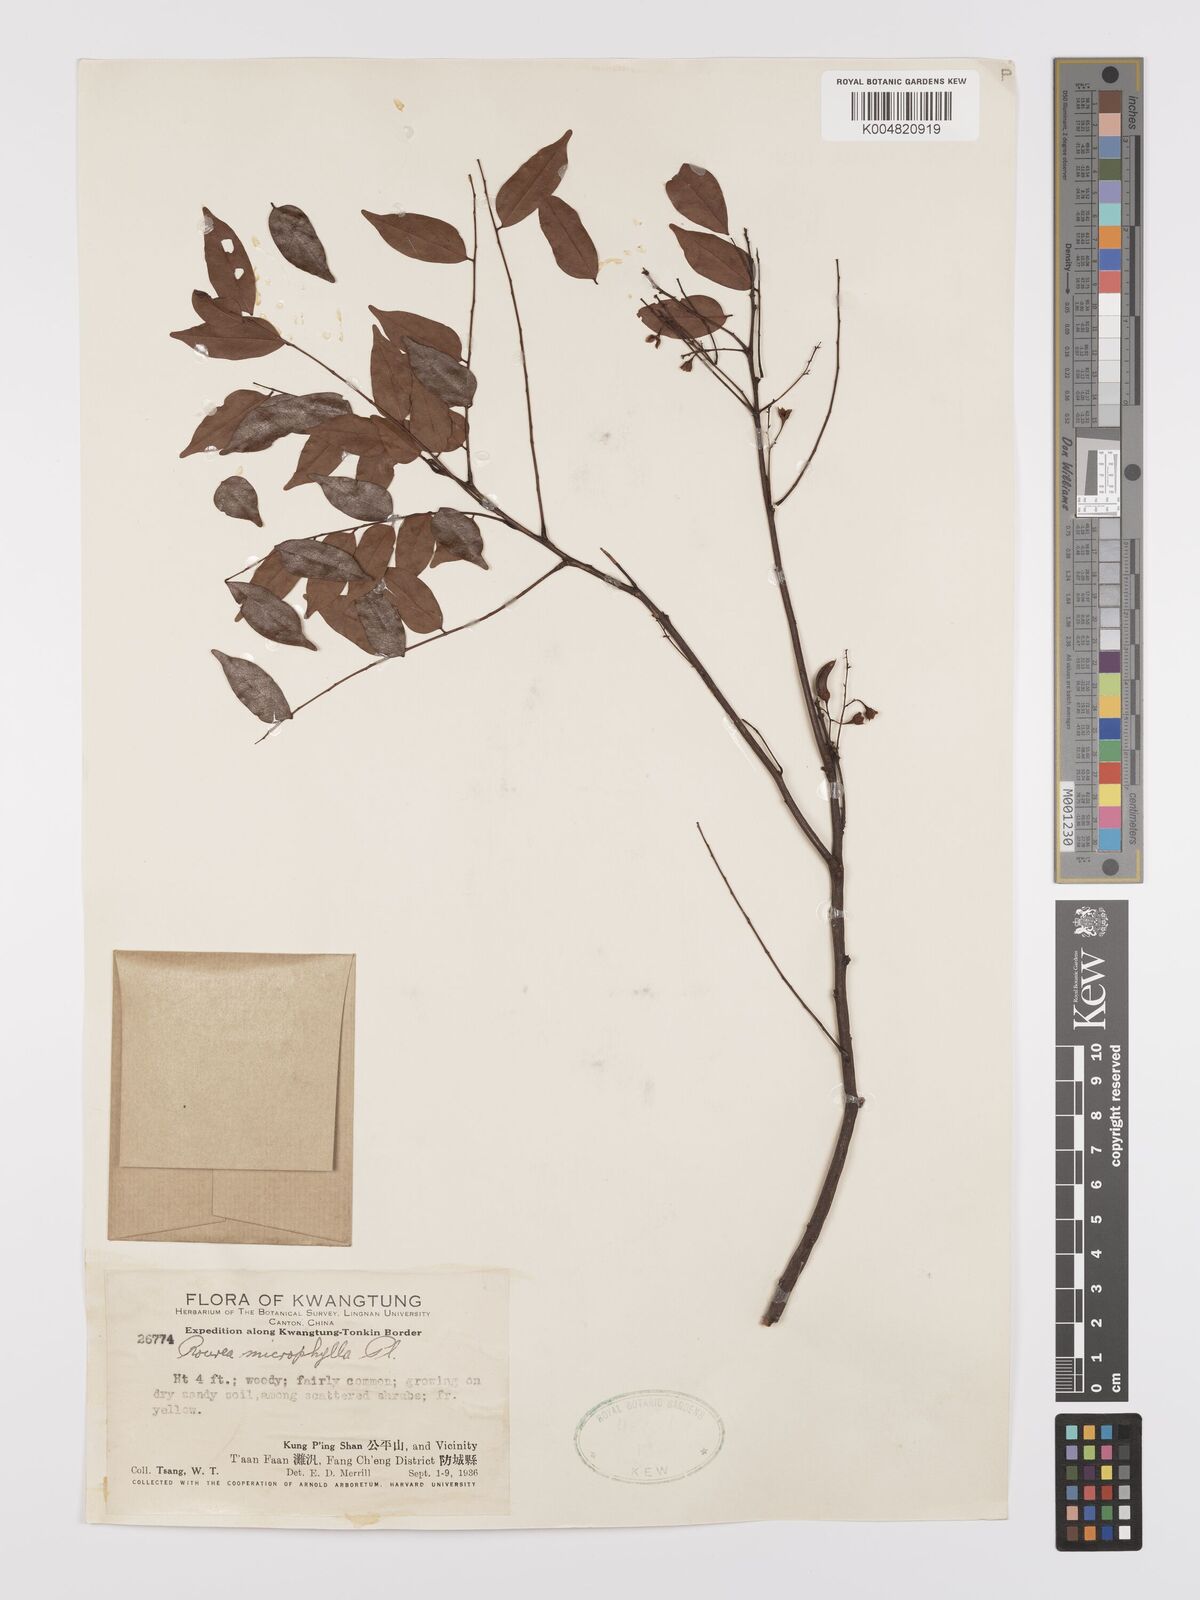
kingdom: Plantae
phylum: Tracheophyta
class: Magnoliopsida
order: Oxalidales
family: Connaraceae
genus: Rourea
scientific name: Rourea microphylla
